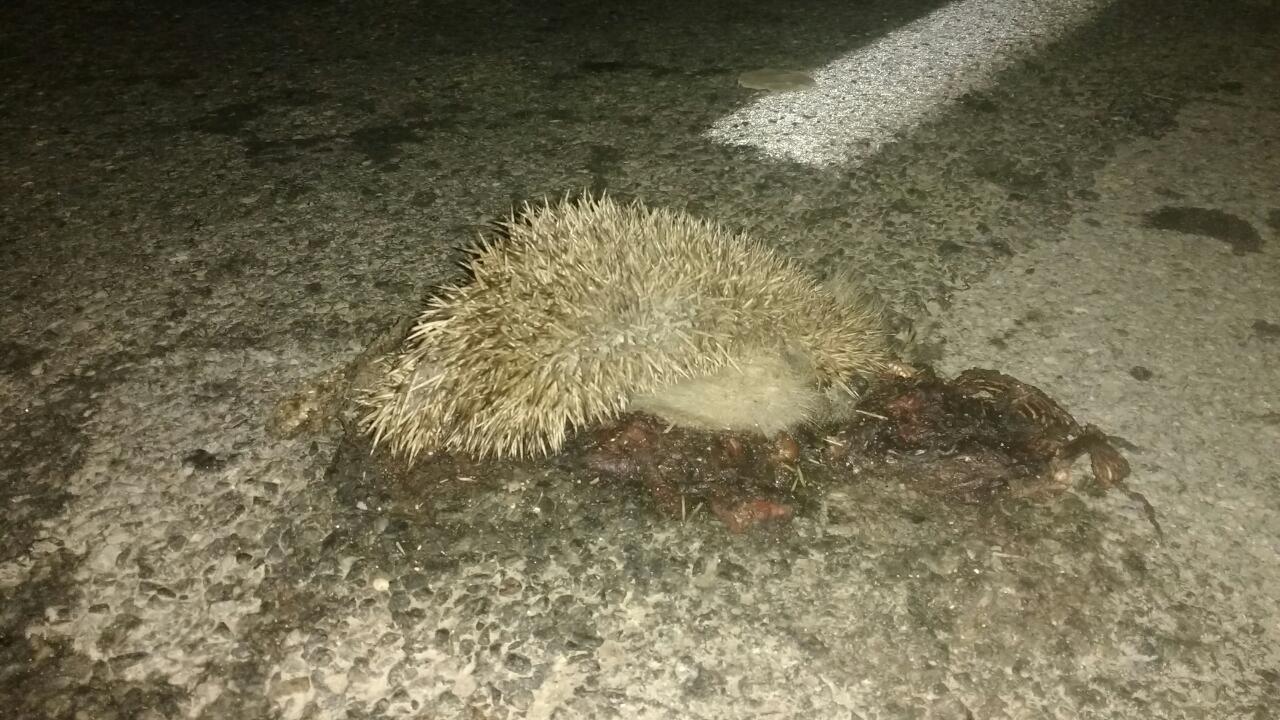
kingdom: Animalia
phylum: Chordata
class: Mammalia
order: Erinaceomorpha
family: Erinaceidae
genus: Erinaceus
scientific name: Erinaceus
